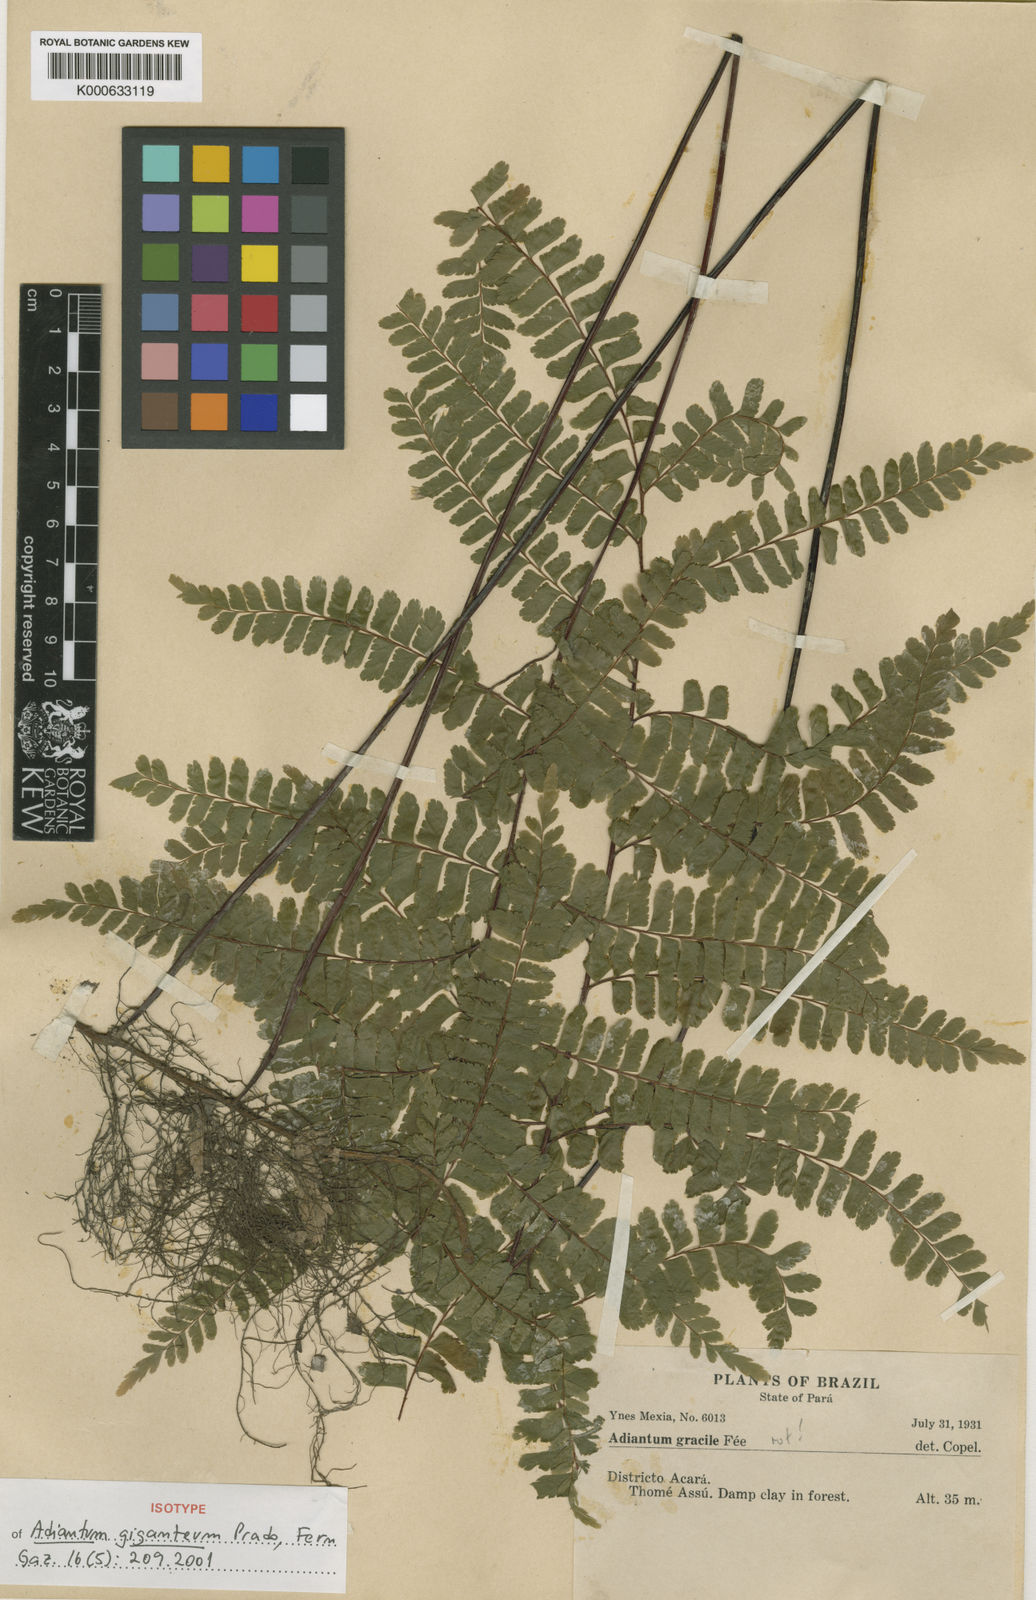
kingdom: Plantae
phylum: Tracheophyta
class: Polypodiopsida
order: Polypodiales
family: Pteridaceae
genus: Adiantum
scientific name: Adiantum giganteum
